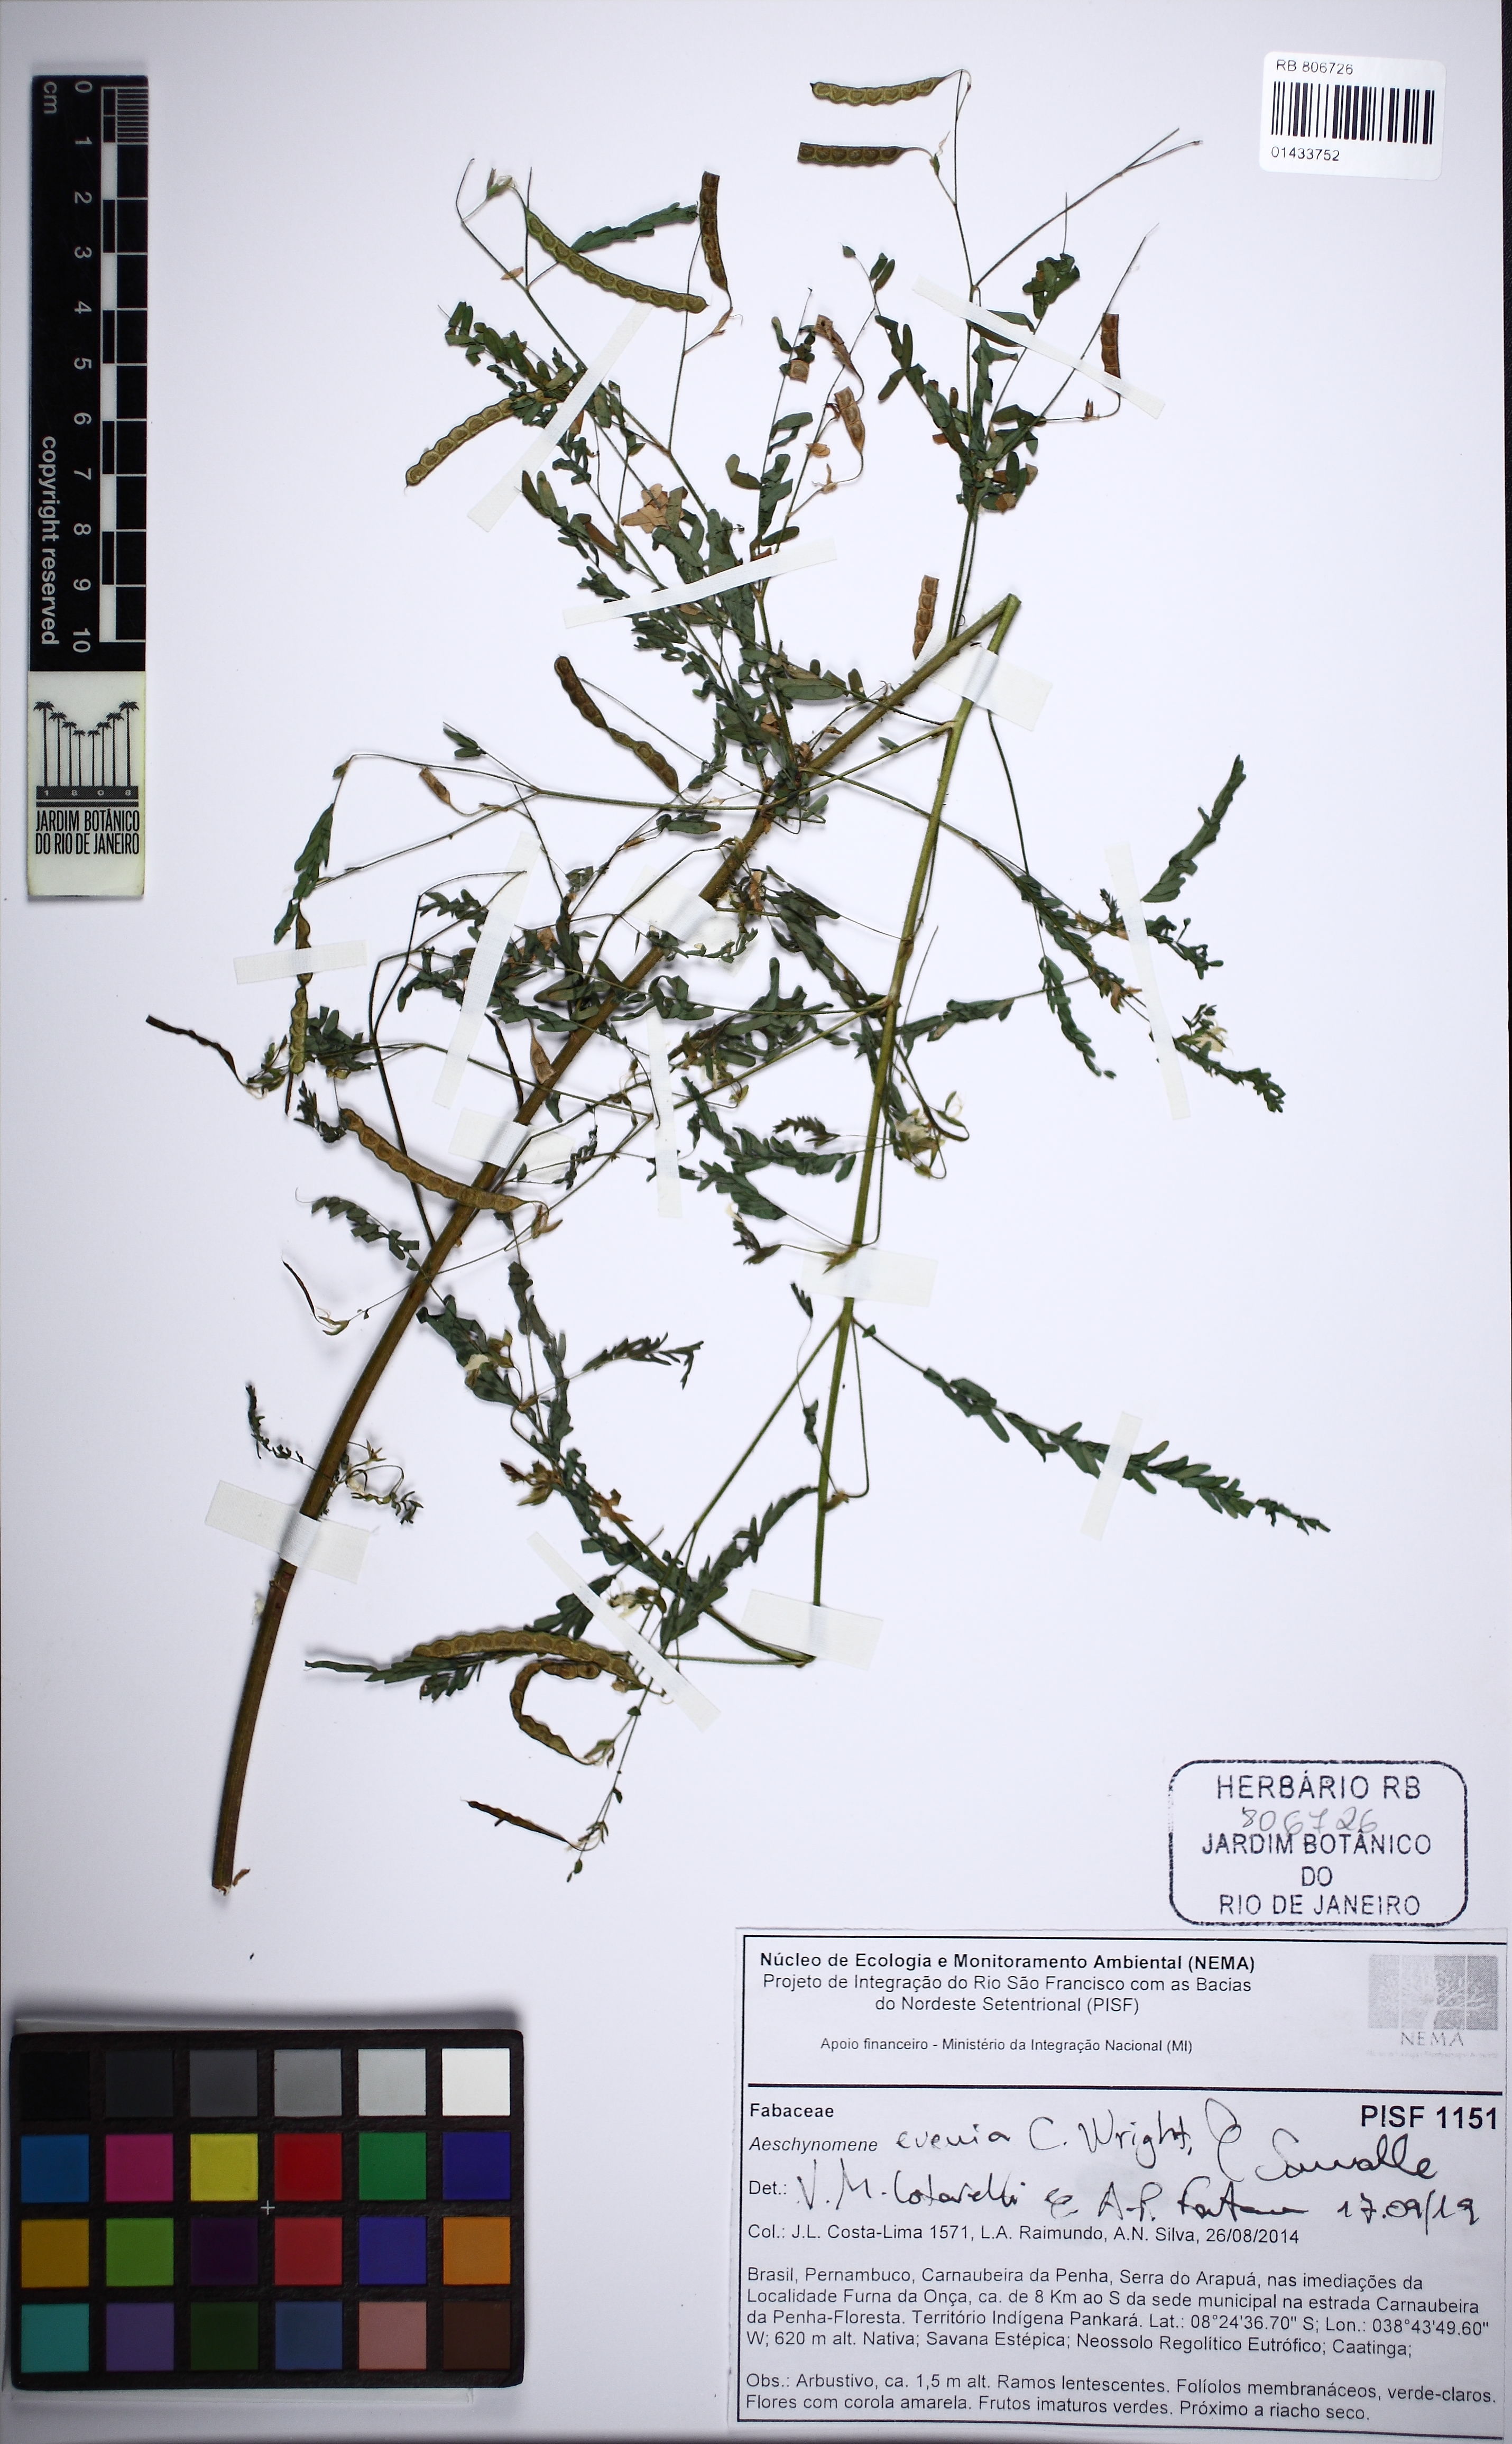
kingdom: Plantae
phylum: Tracheophyta
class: Magnoliopsida
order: Fabales
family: Fabaceae
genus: Aeschynomene
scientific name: Aeschynomene evenia
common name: Shrubby jointvetch
